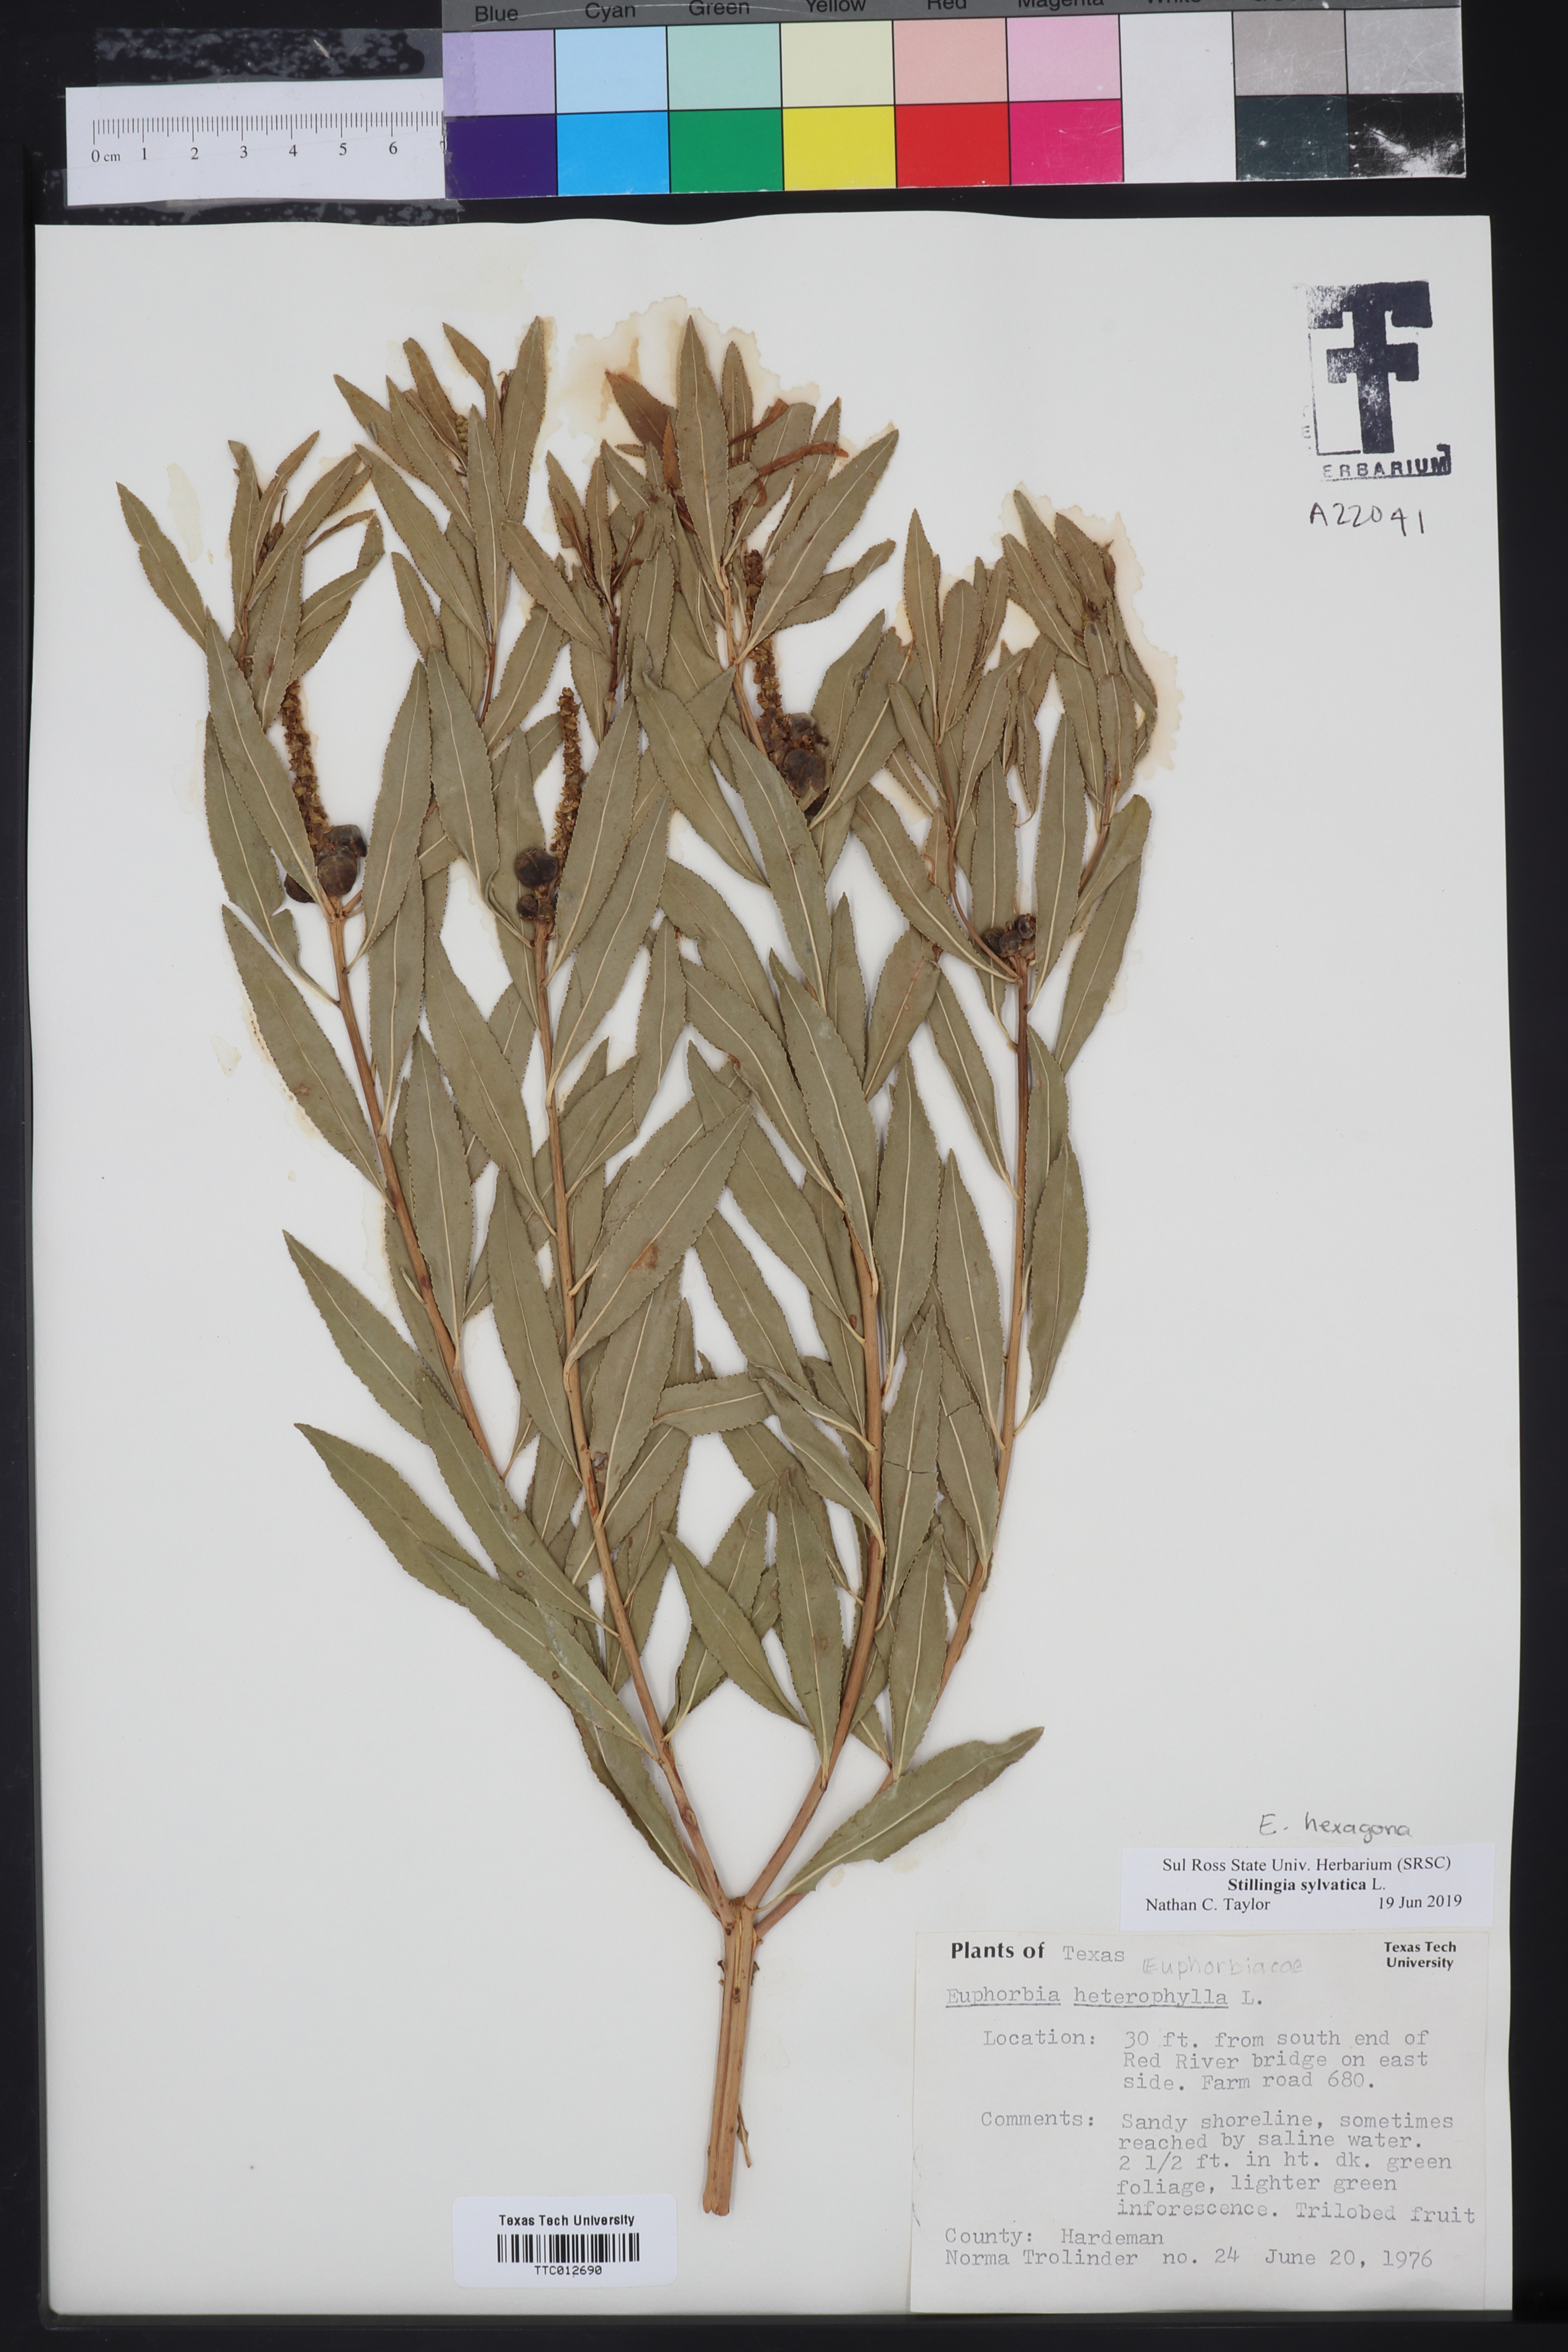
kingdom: Plantae
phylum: Tracheophyta
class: Magnoliopsida
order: Malpighiales
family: Euphorbiaceae
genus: Stillingia
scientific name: Stillingia sylvatica
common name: Queen's-delight
